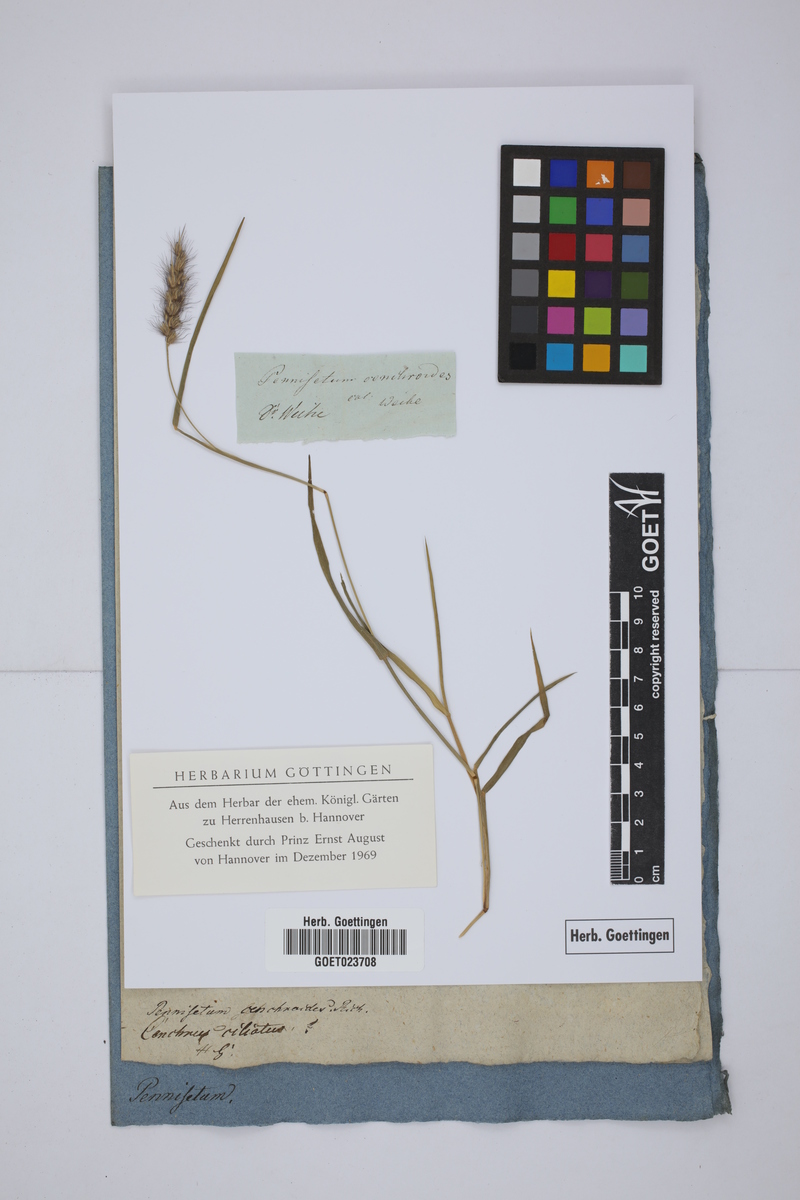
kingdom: Plantae
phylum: Tracheophyta
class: Liliopsida
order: Poales
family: Poaceae
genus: Cenchrus
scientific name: Cenchrus ciliaris
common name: Buffelgrass
